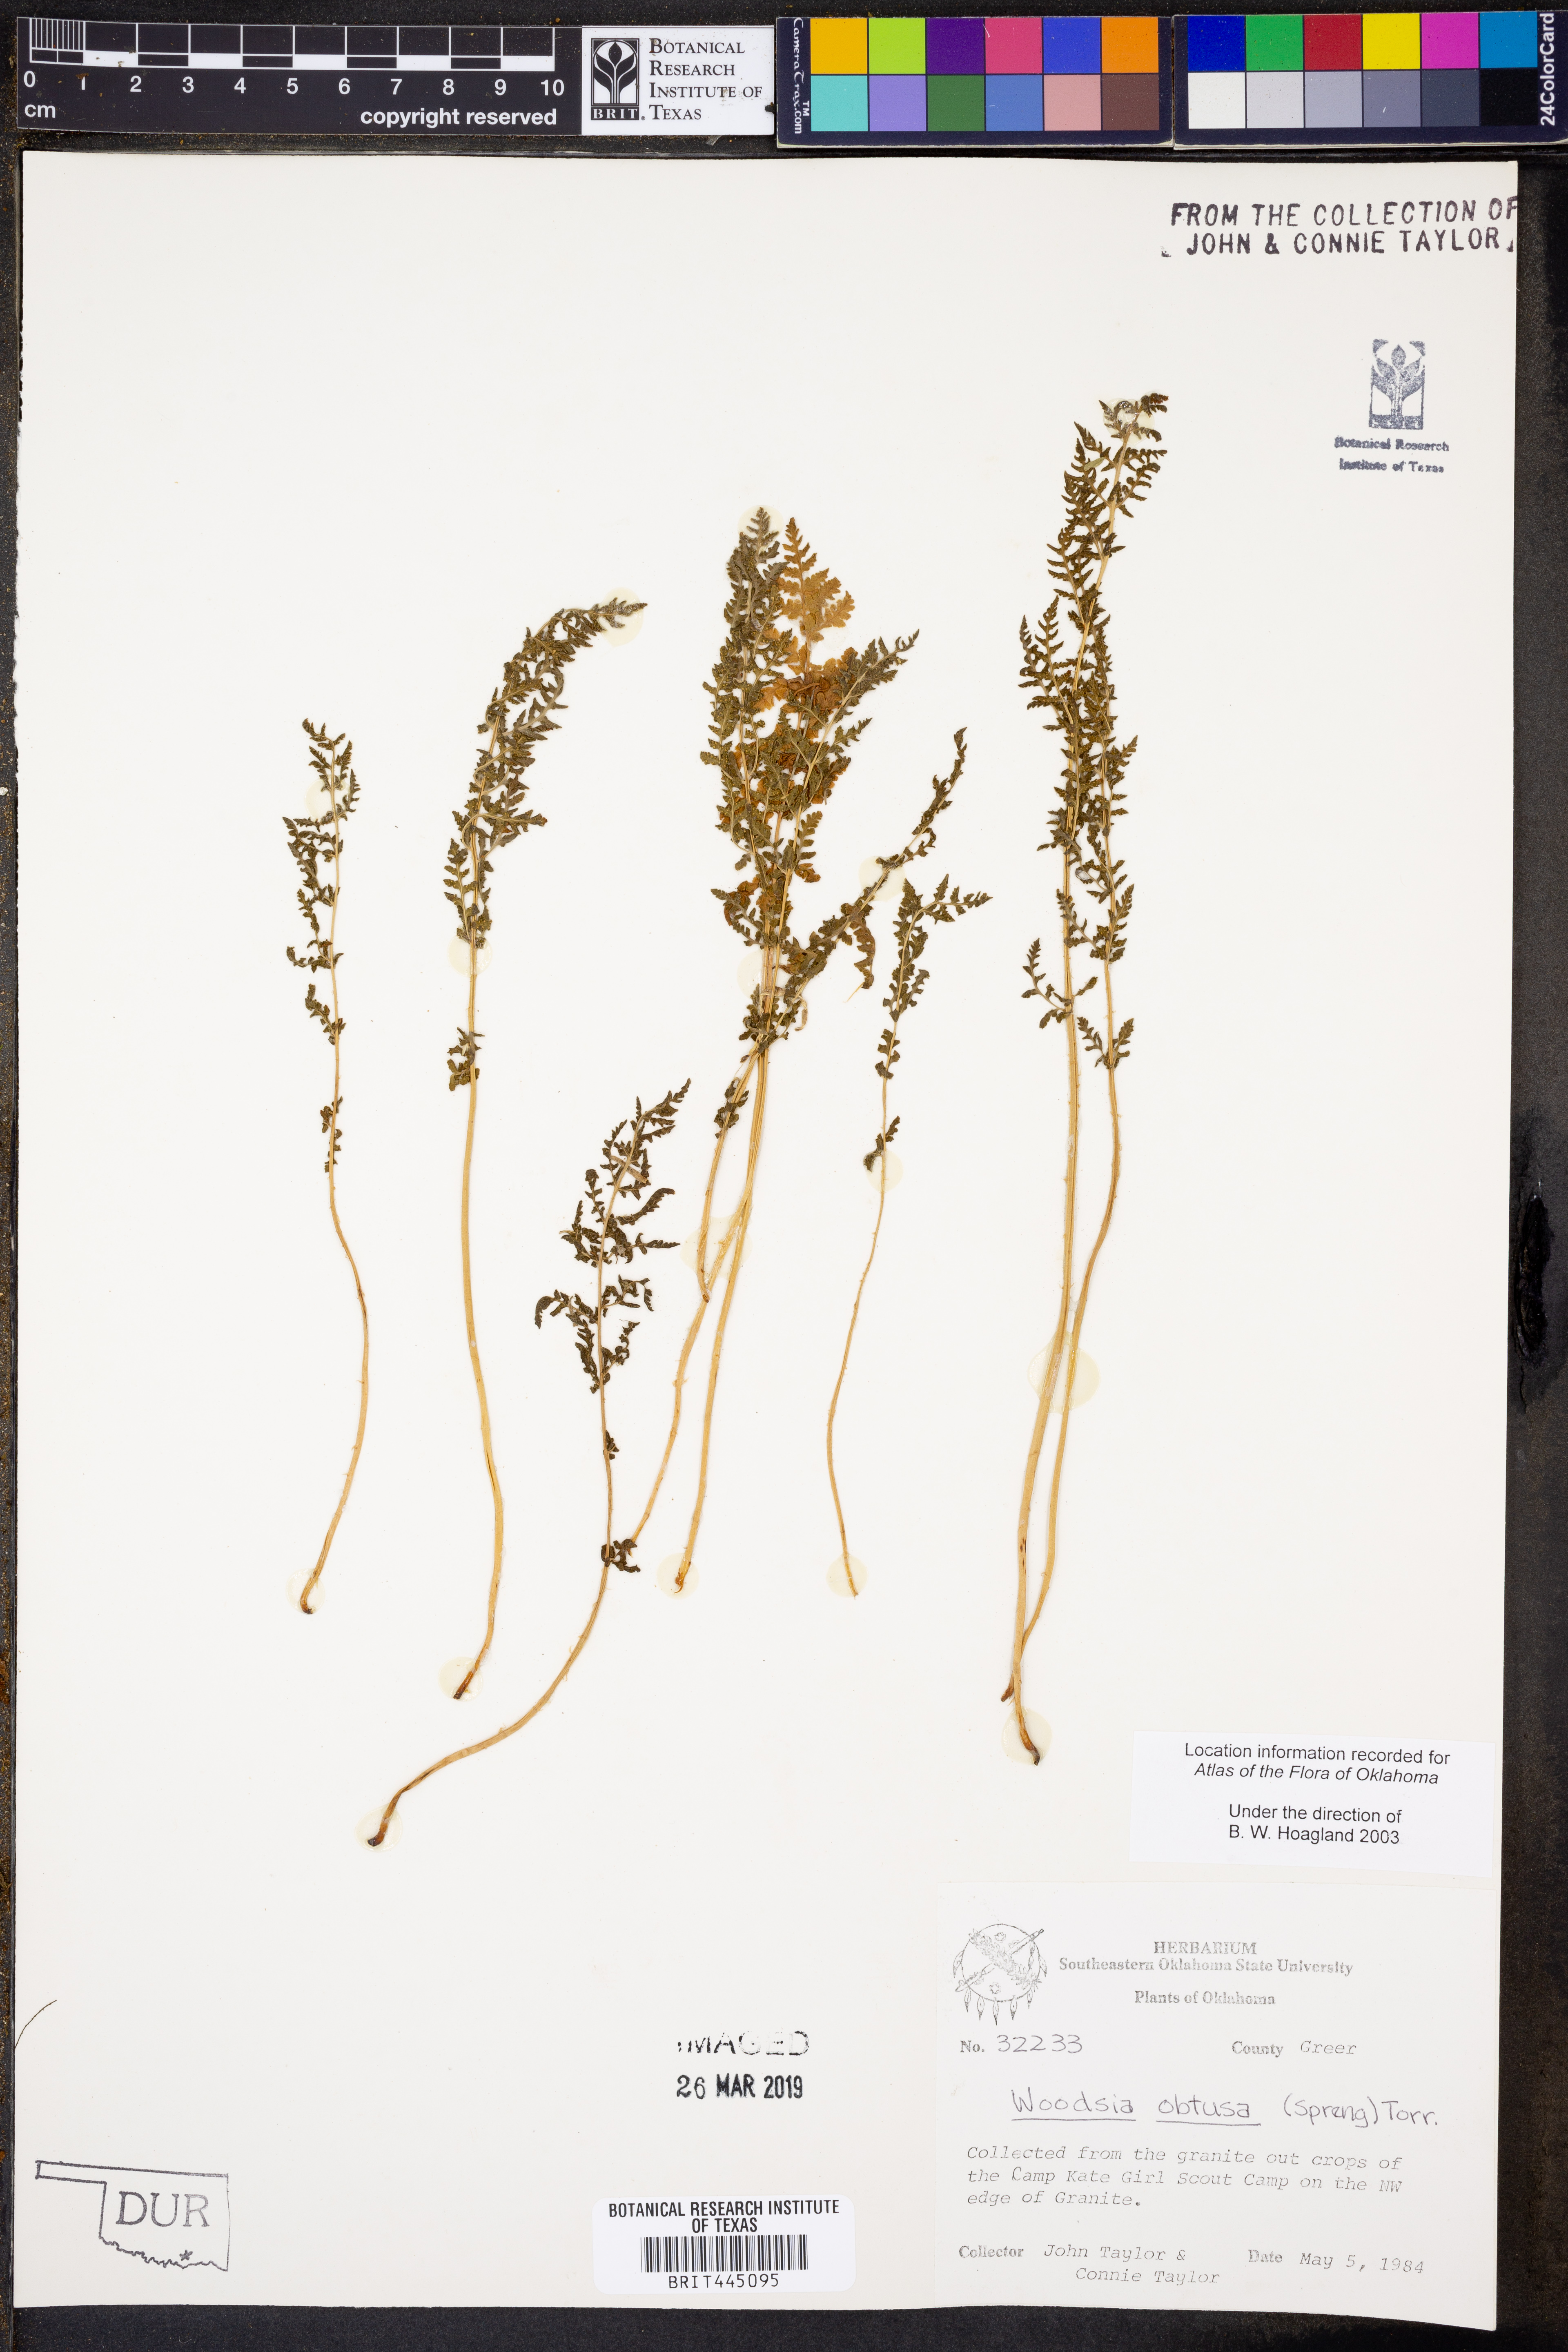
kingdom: Plantae
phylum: Tracheophyta
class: Polypodiopsida
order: Polypodiales
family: Woodsiaceae
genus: Physematium
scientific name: Physematium obtusum
